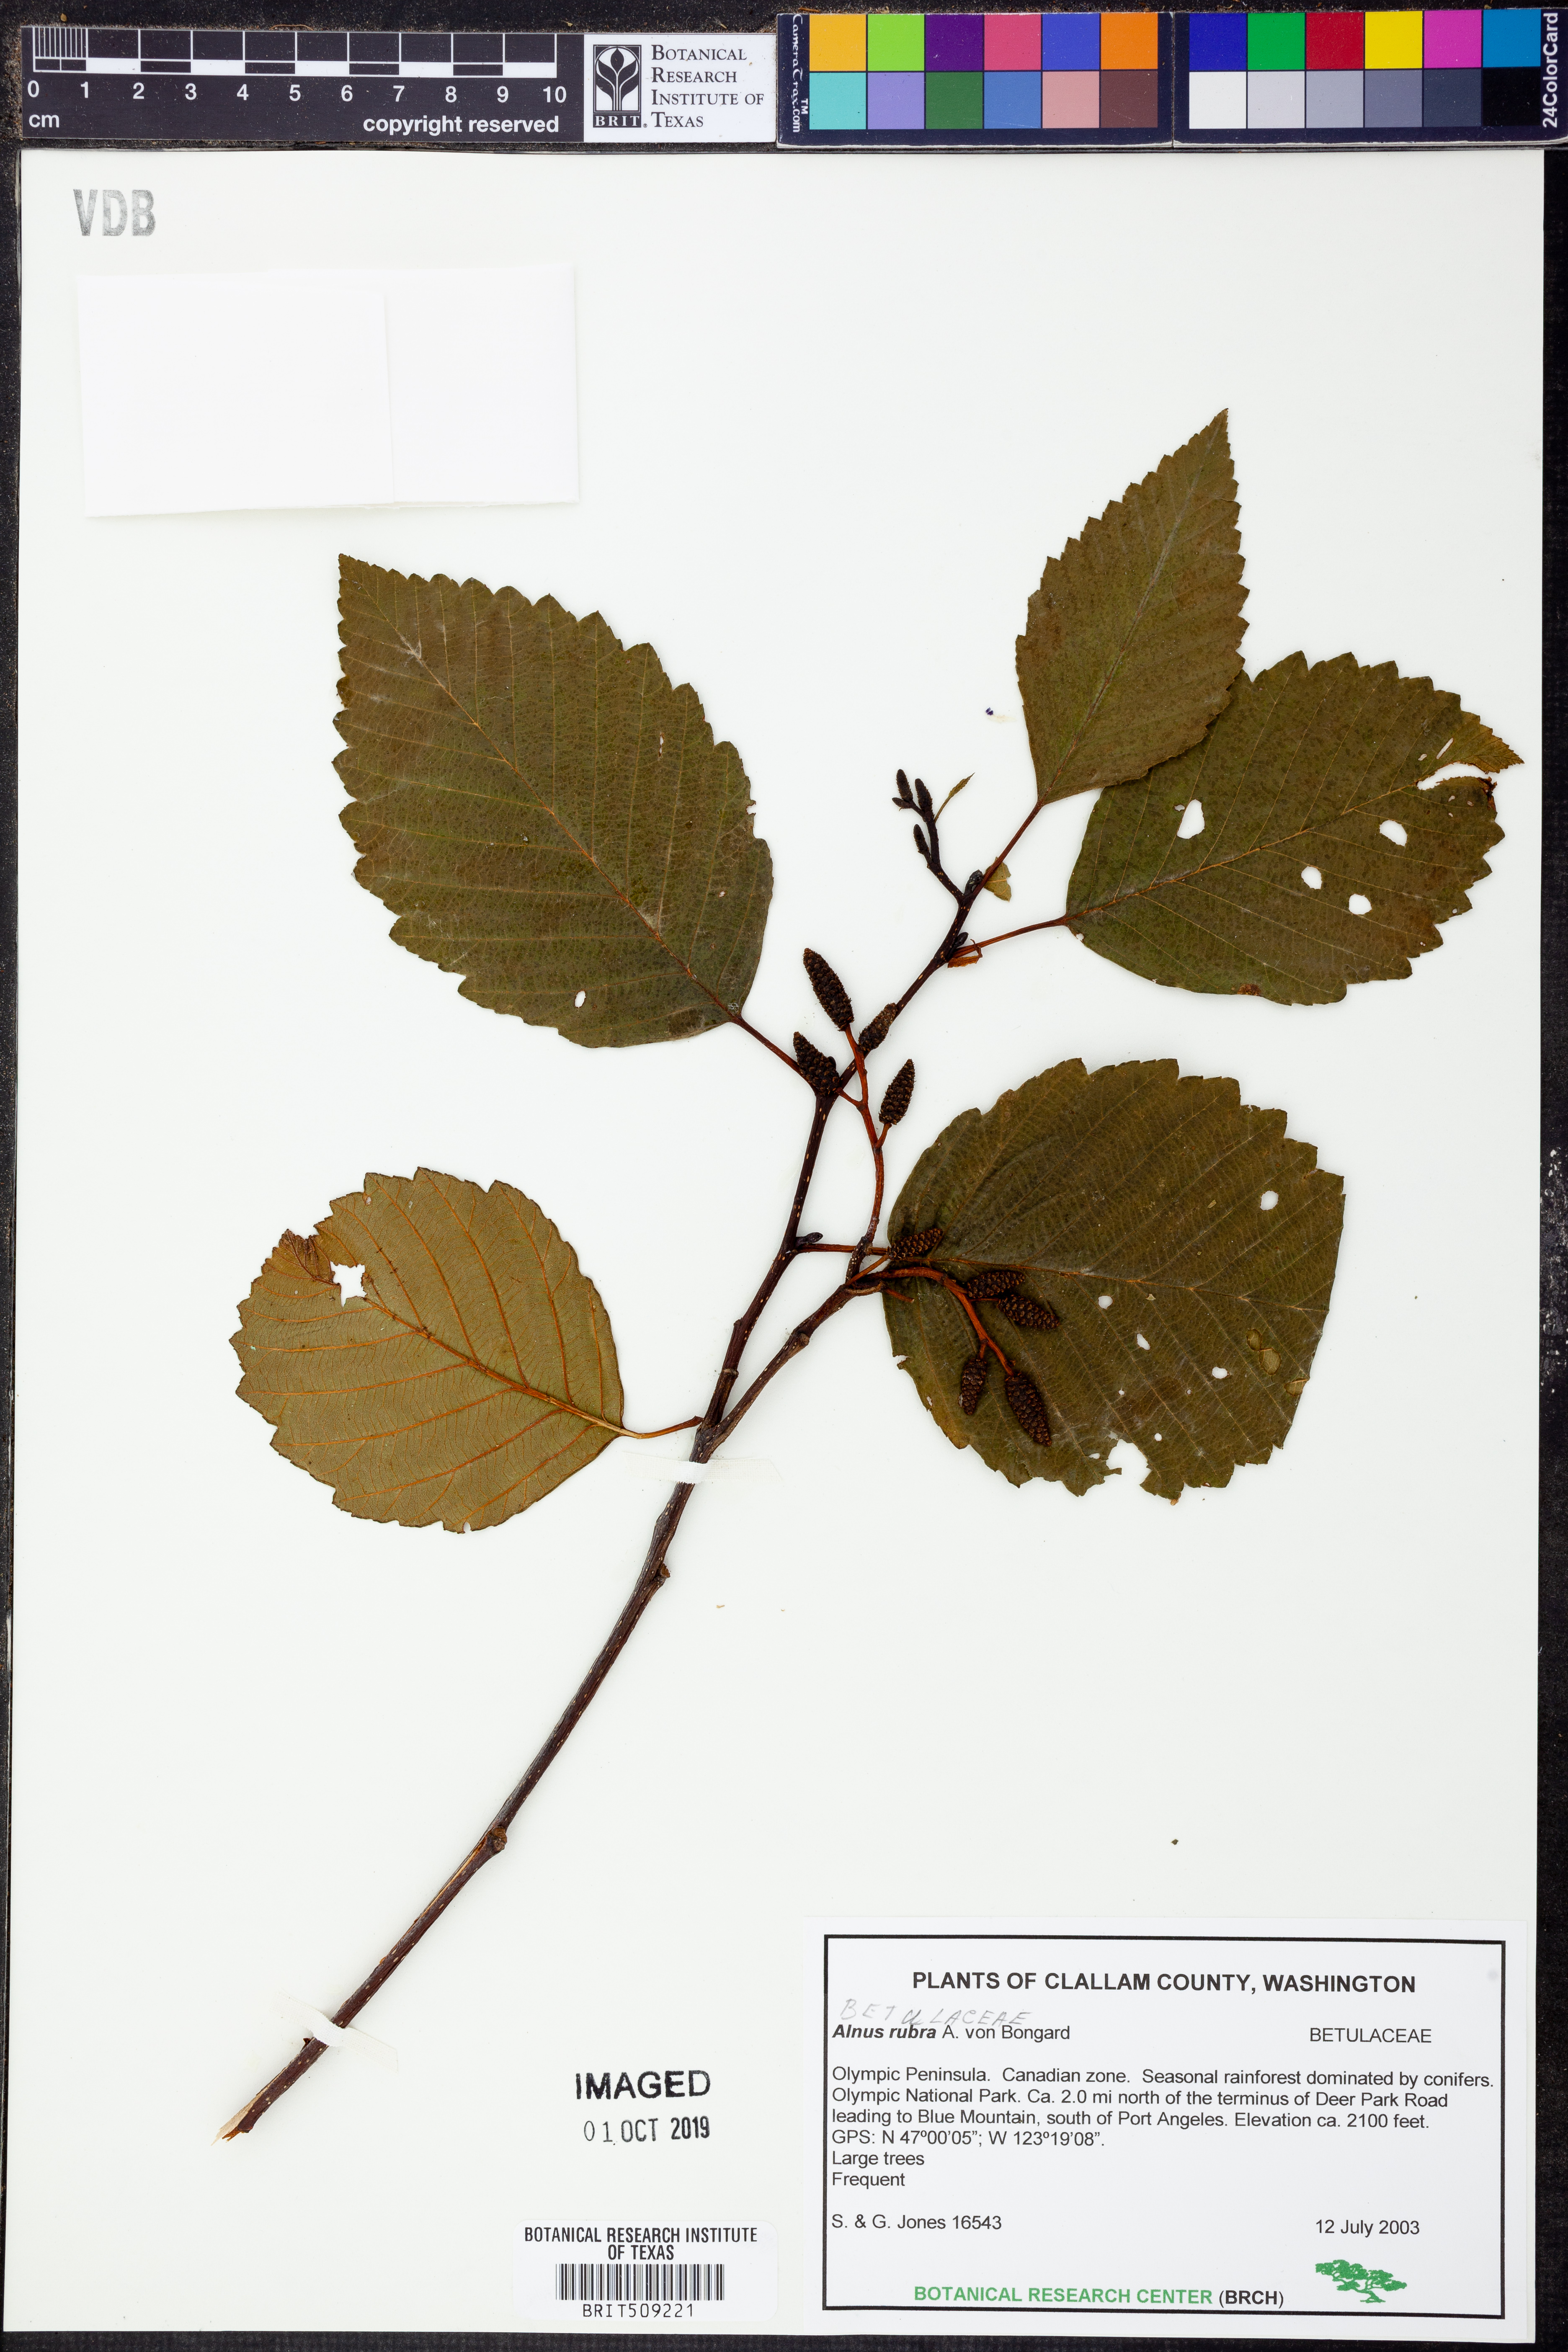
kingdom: Plantae
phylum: Tracheophyta
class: Magnoliopsida
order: Fagales
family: Betulaceae
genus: Alnus
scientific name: Alnus rubra
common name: Red alder
